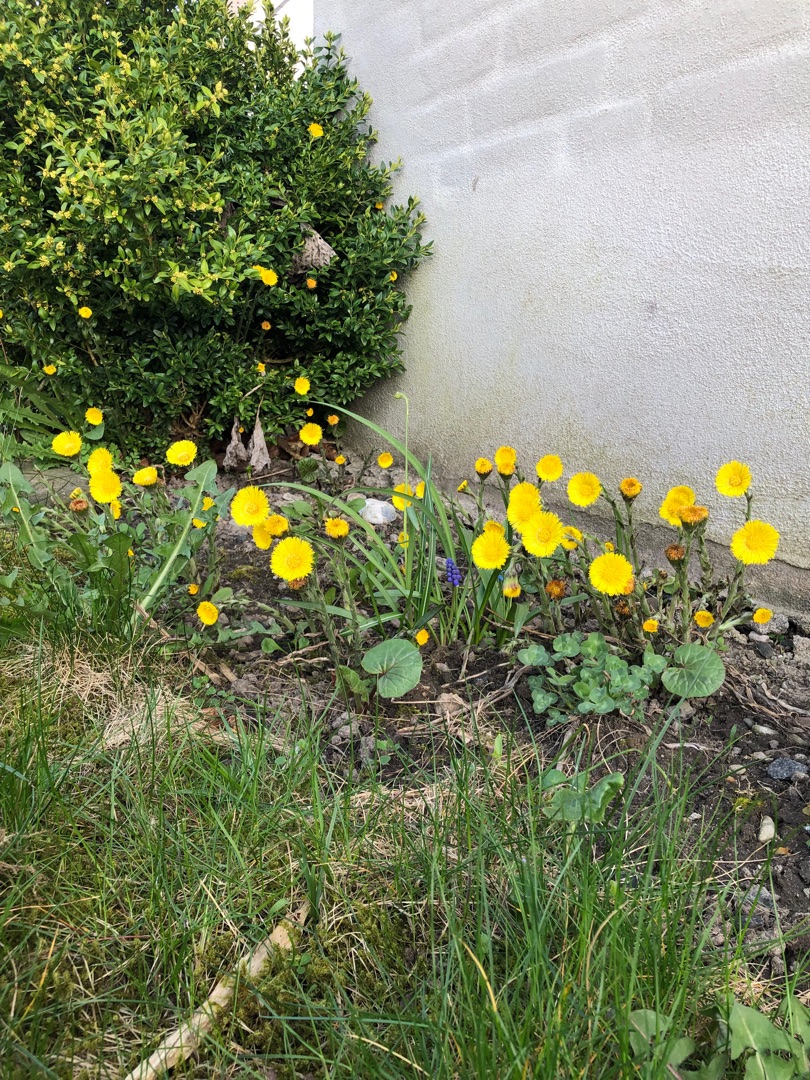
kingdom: Plantae
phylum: Tracheophyta
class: Magnoliopsida
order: Asterales
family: Asteraceae
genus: Tussilago
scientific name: Tussilago farfara
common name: Følfod
